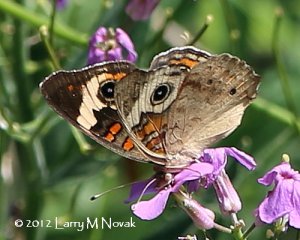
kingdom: Animalia
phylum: Arthropoda
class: Insecta
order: Lepidoptera
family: Nymphalidae
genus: Junonia
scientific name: Junonia coenia
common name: Common Buckeye
